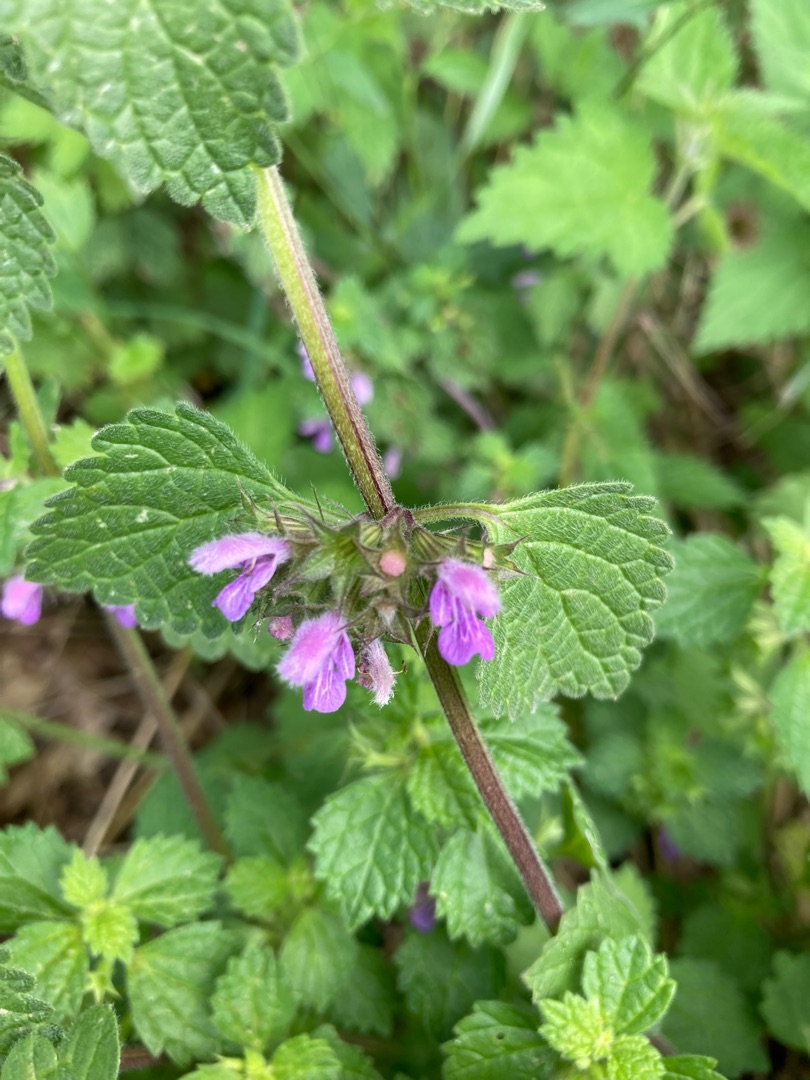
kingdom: Plantae
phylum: Tracheophyta
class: Magnoliopsida
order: Lamiales
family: Lamiaceae
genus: Ballota
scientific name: Ballota nigra
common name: Tandbæger
